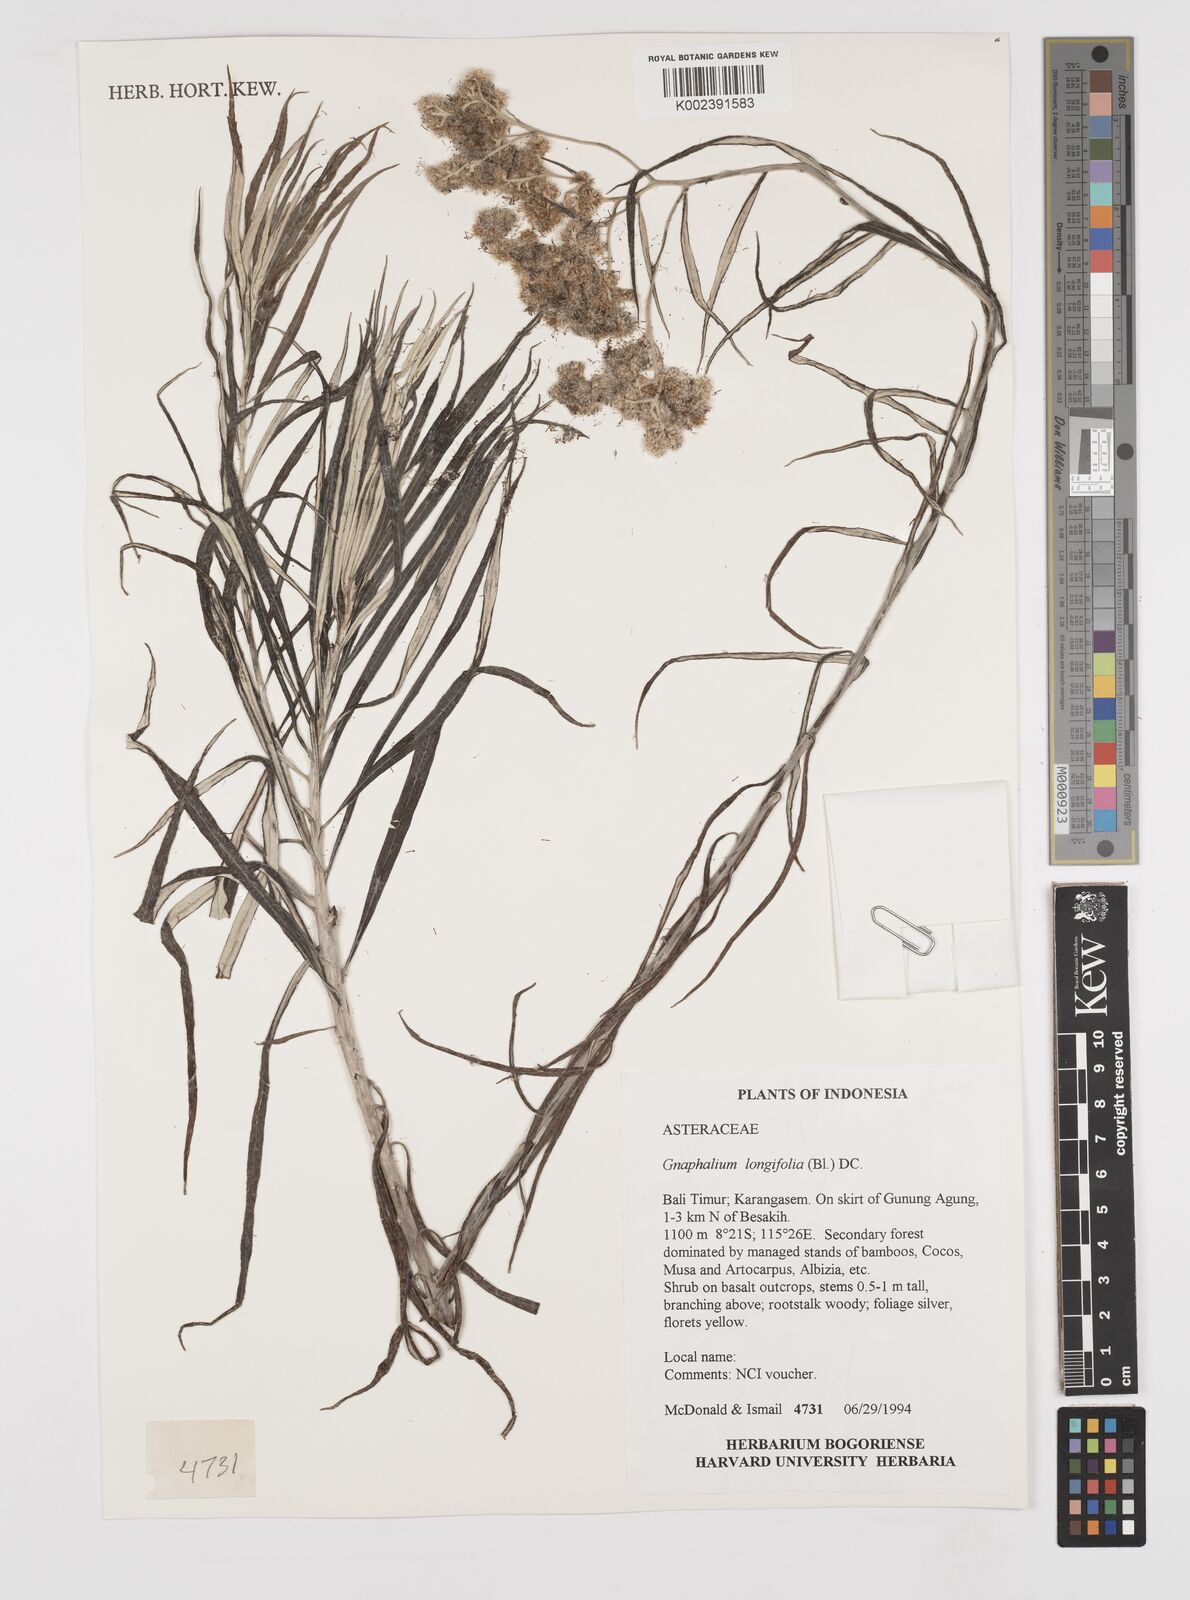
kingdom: Plantae
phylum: Tracheophyta
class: Magnoliopsida
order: Asterales
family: Asteraceae
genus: Anaphalis
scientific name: Anaphalis longifolia
